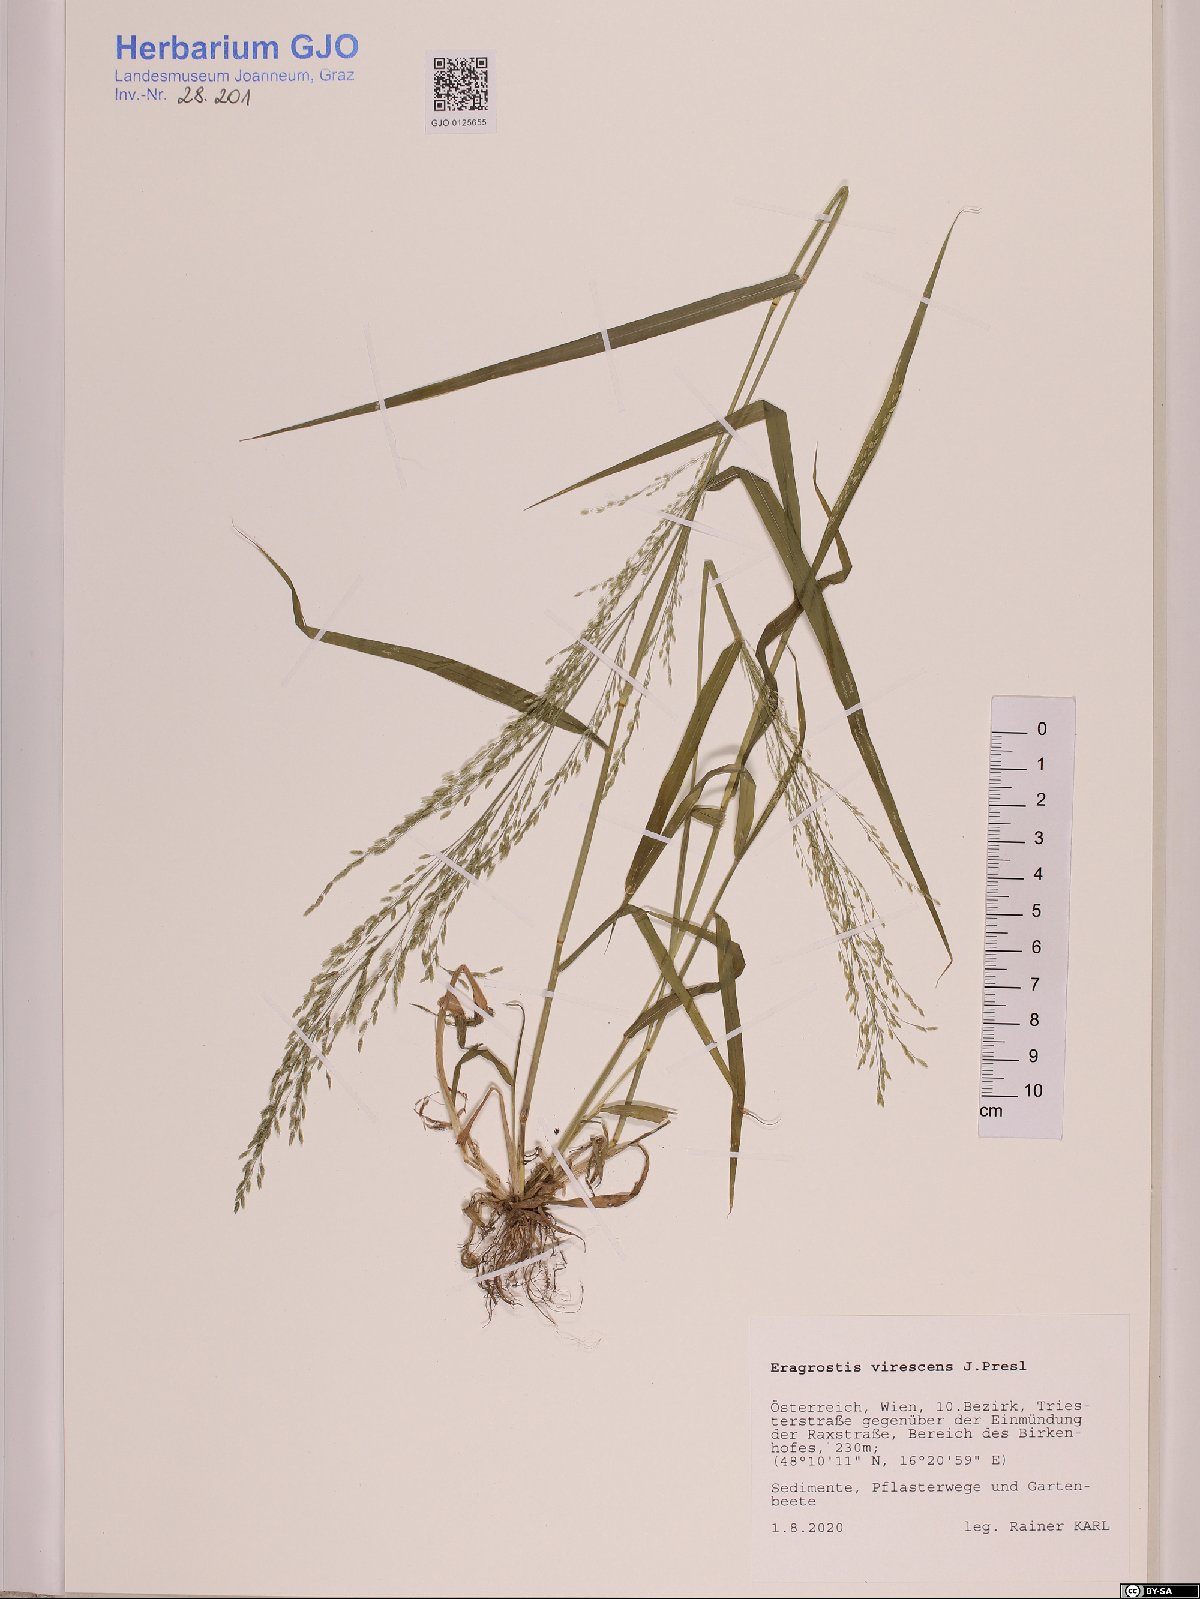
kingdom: Plantae
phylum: Tracheophyta
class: Liliopsida
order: Poales
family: Poaceae
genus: Eragrostis
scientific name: Eragrostis virescens
